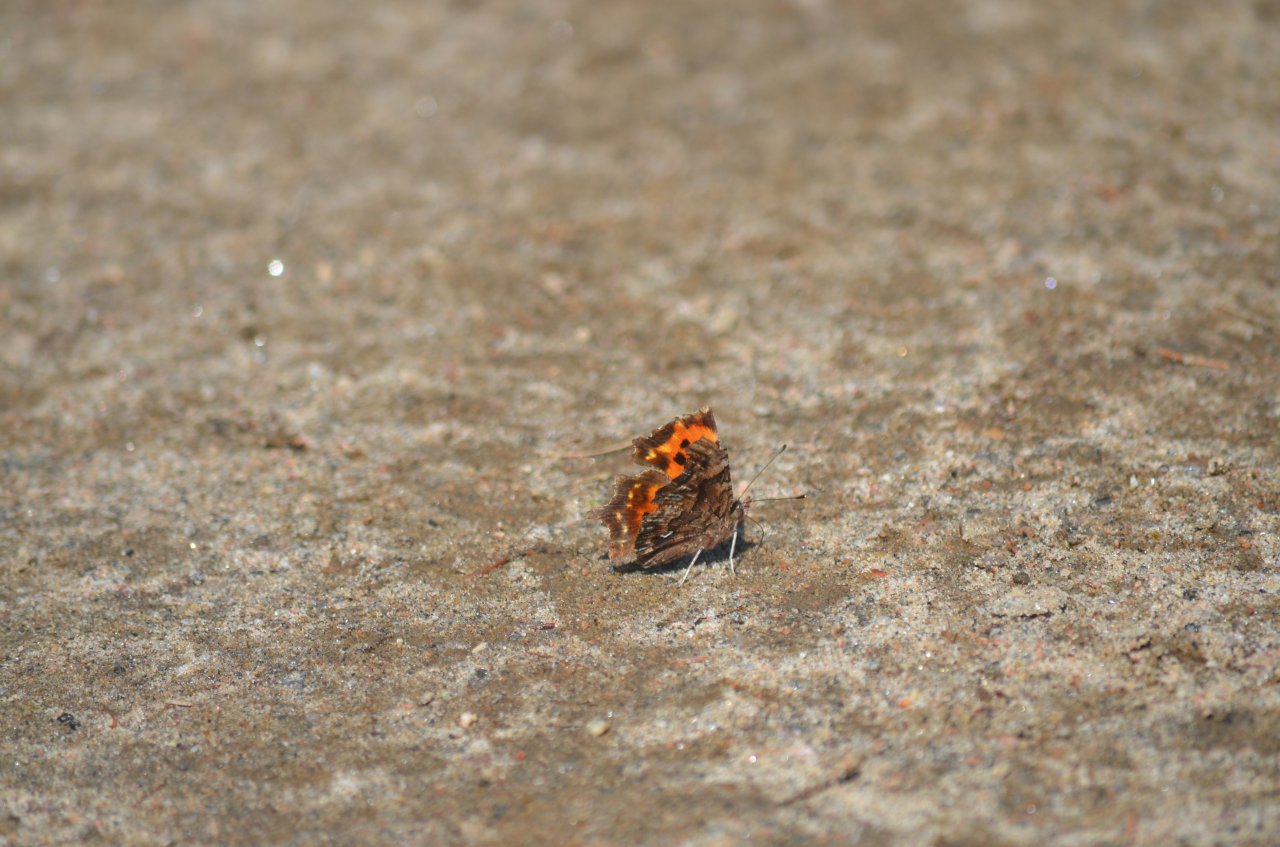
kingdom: Animalia
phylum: Arthropoda
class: Insecta
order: Lepidoptera
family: Nymphalidae
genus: Polygonia
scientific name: Polygonia faunus
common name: Green Comma
